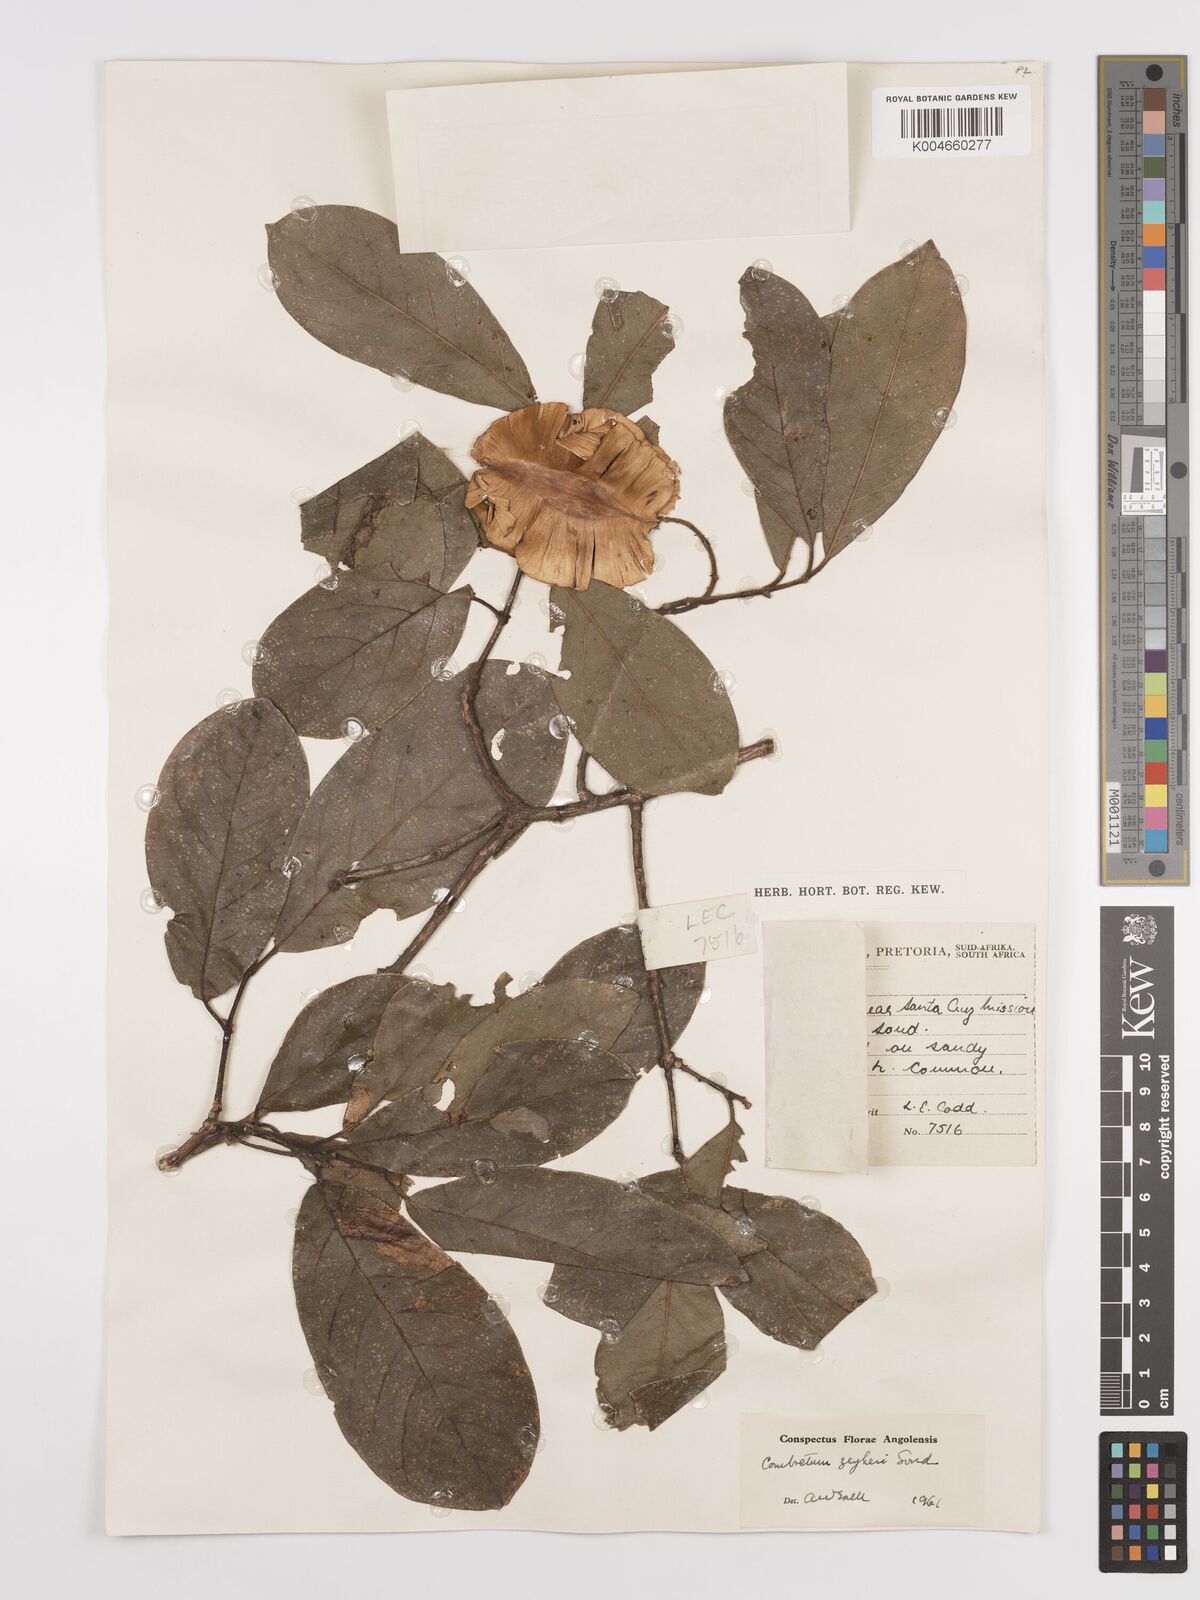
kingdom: Plantae
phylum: Tracheophyta
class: Magnoliopsida
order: Myrtales
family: Combretaceae
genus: Combretum
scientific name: Combretum zeyheri
